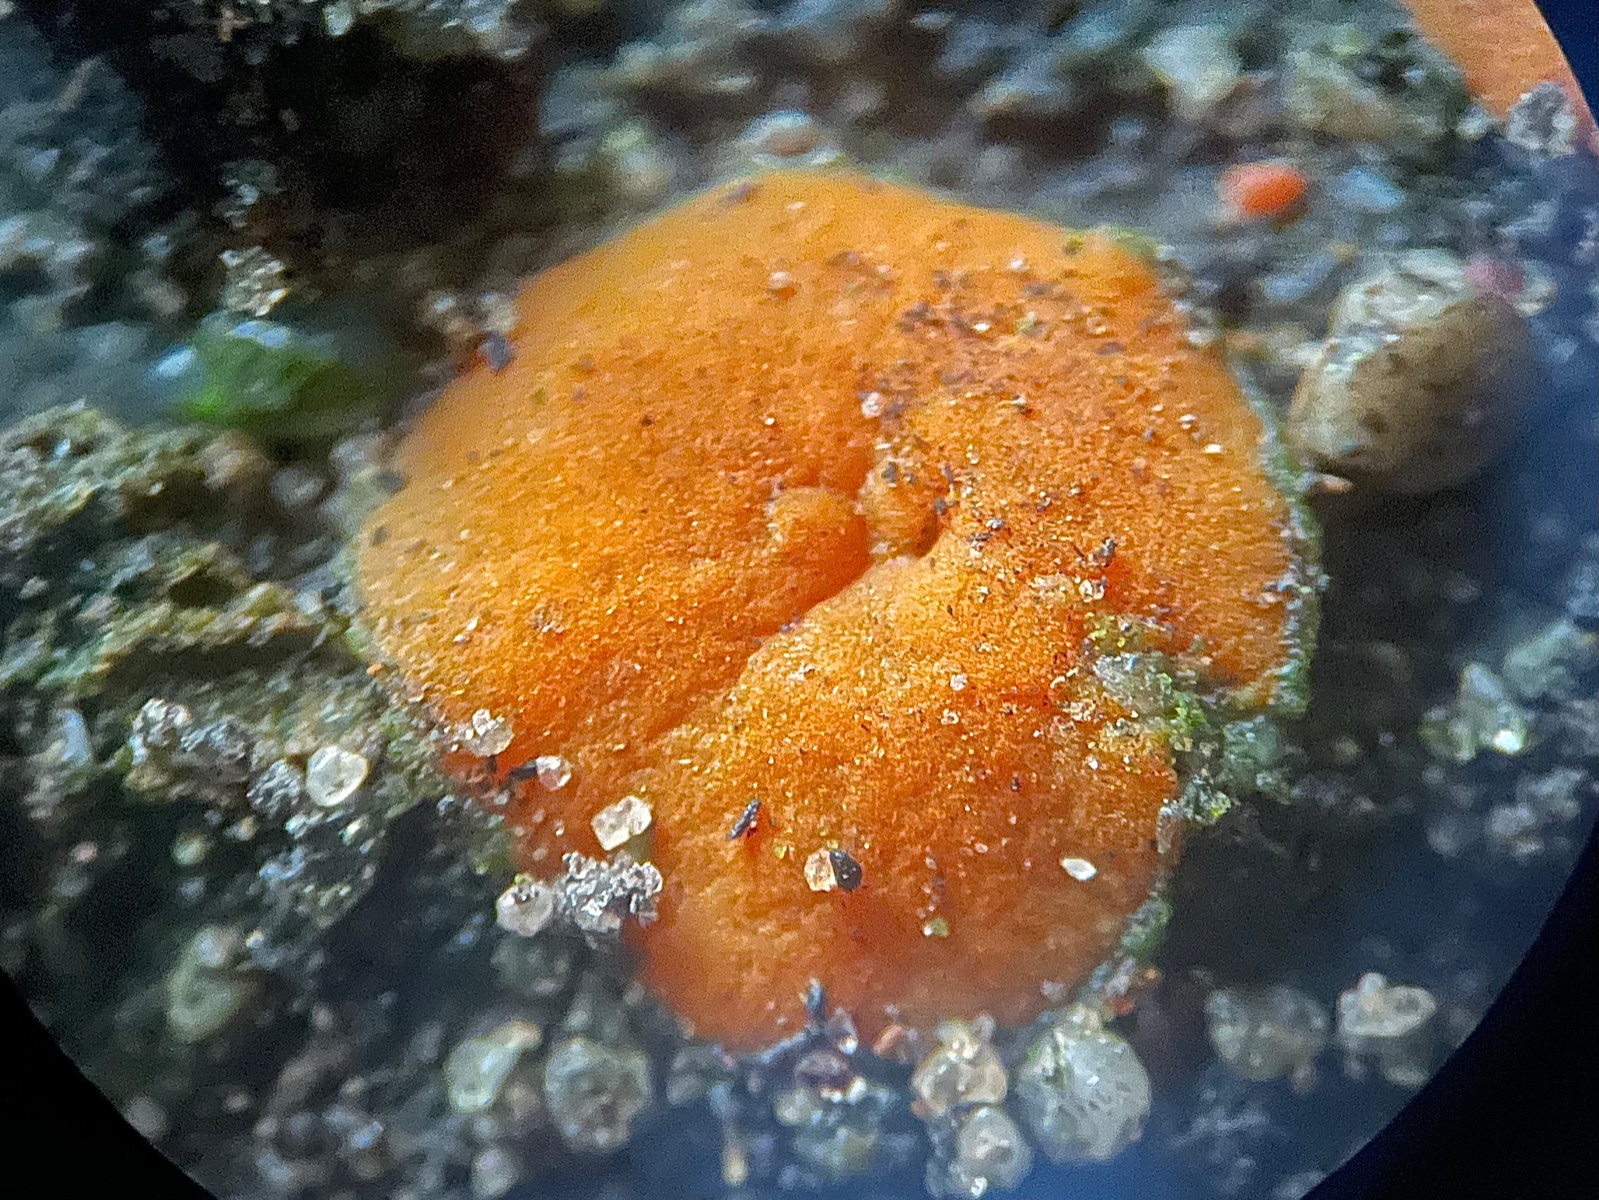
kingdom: Fungi
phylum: Ascomycota
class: Pezizomycetes
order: Pezizales
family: Pyronemataceae
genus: Anthracobia
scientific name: Anthracobia
